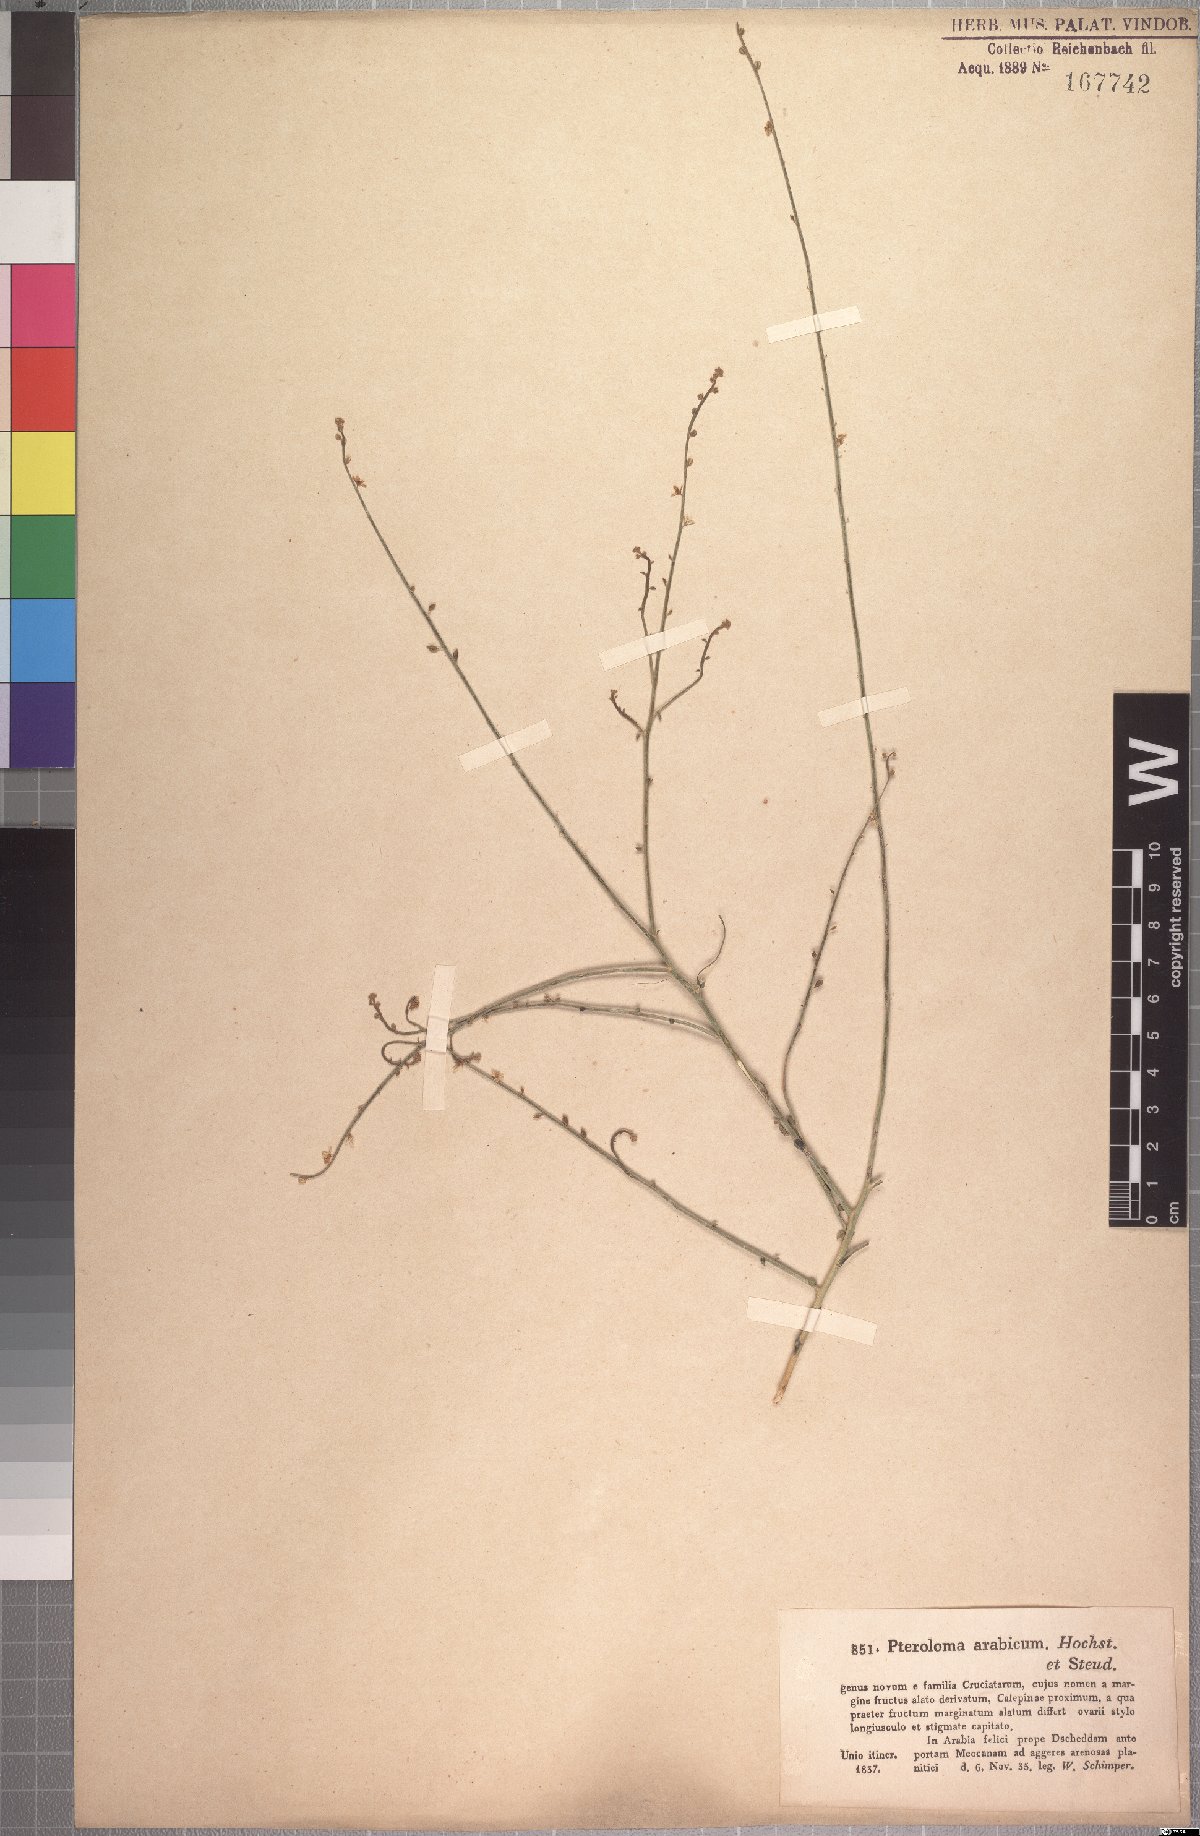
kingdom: Plantae
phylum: Tracheophyta
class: Magnoliopsida
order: Brassicales
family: Cleomaceae
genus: Dipterygium
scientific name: Dipterygium glaucum
